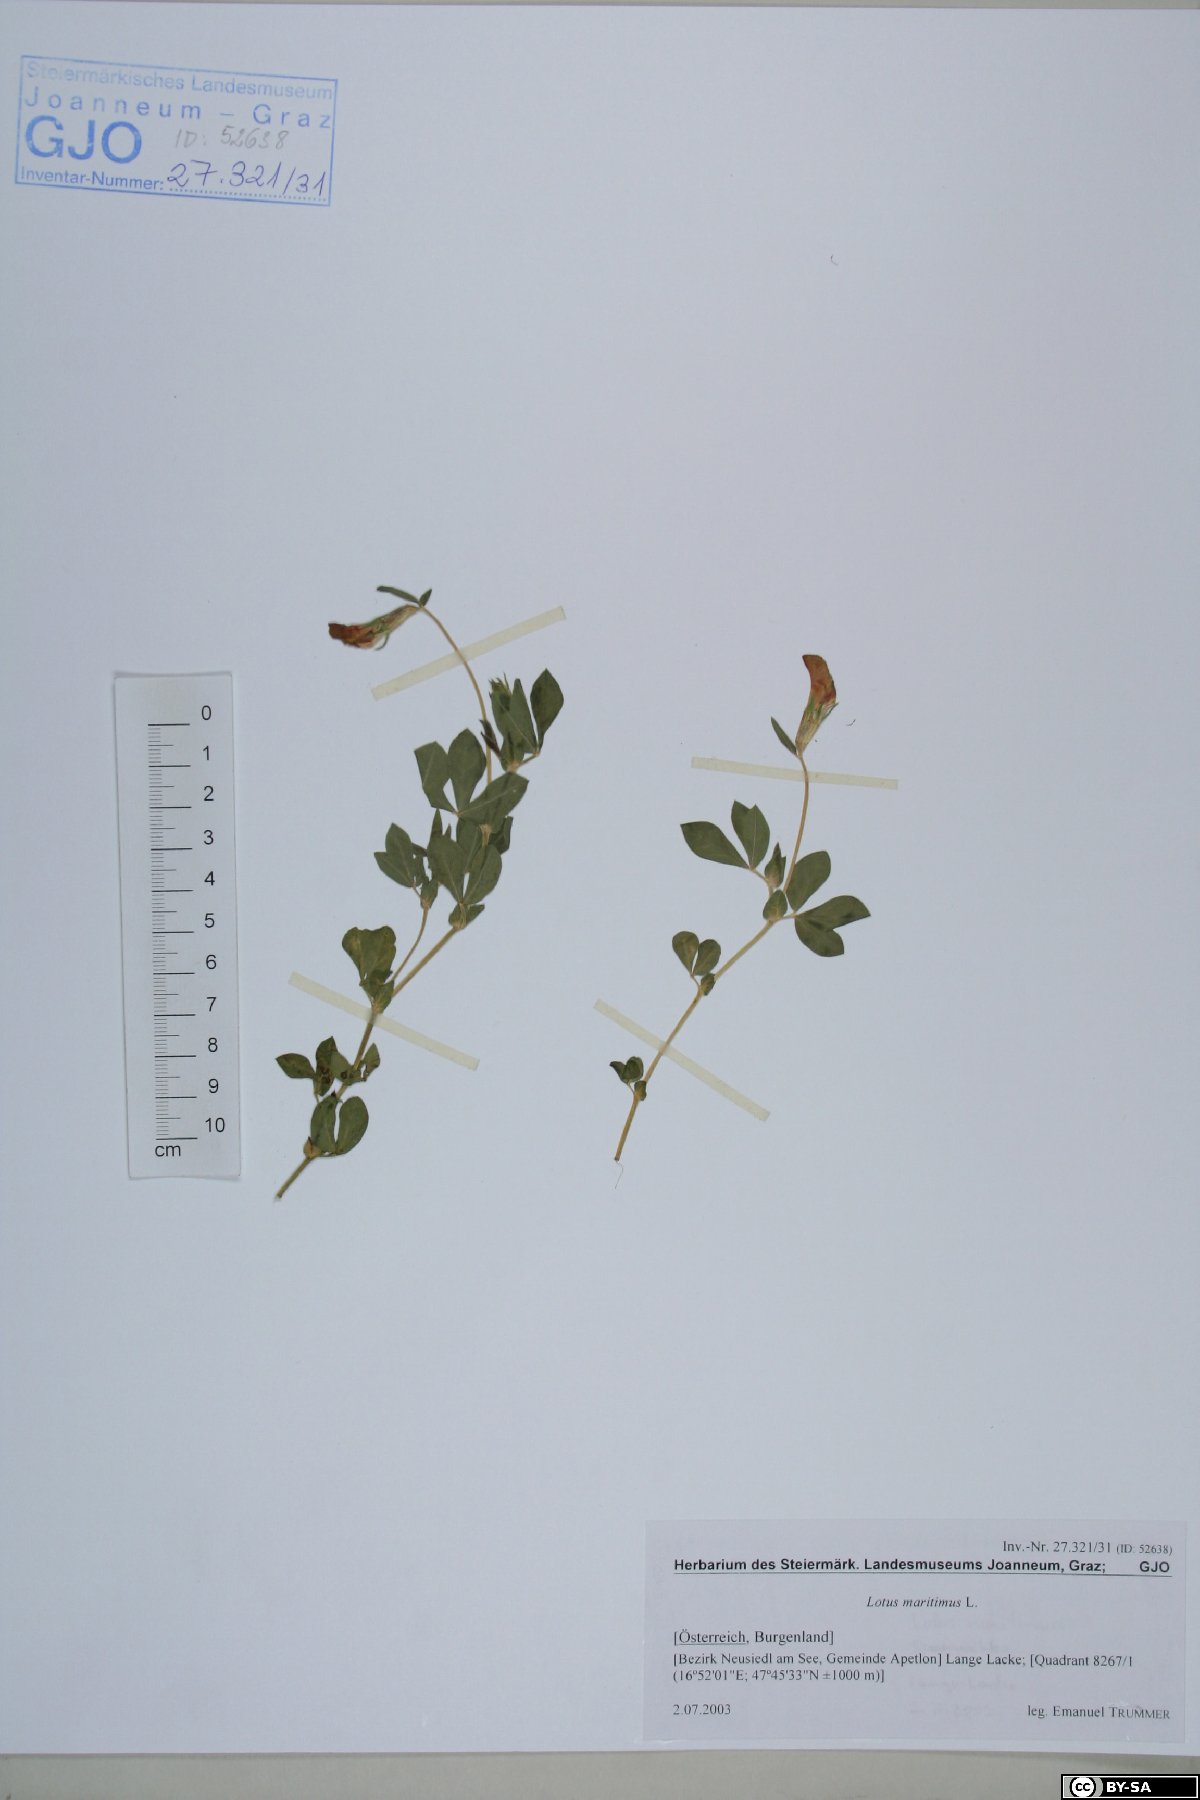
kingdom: Plantae
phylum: Tracheophyta
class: Magnoliopsida
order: Fabales
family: Fabaceae
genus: Lotus
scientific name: Lotus maritimus
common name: Dragon's-teeth
